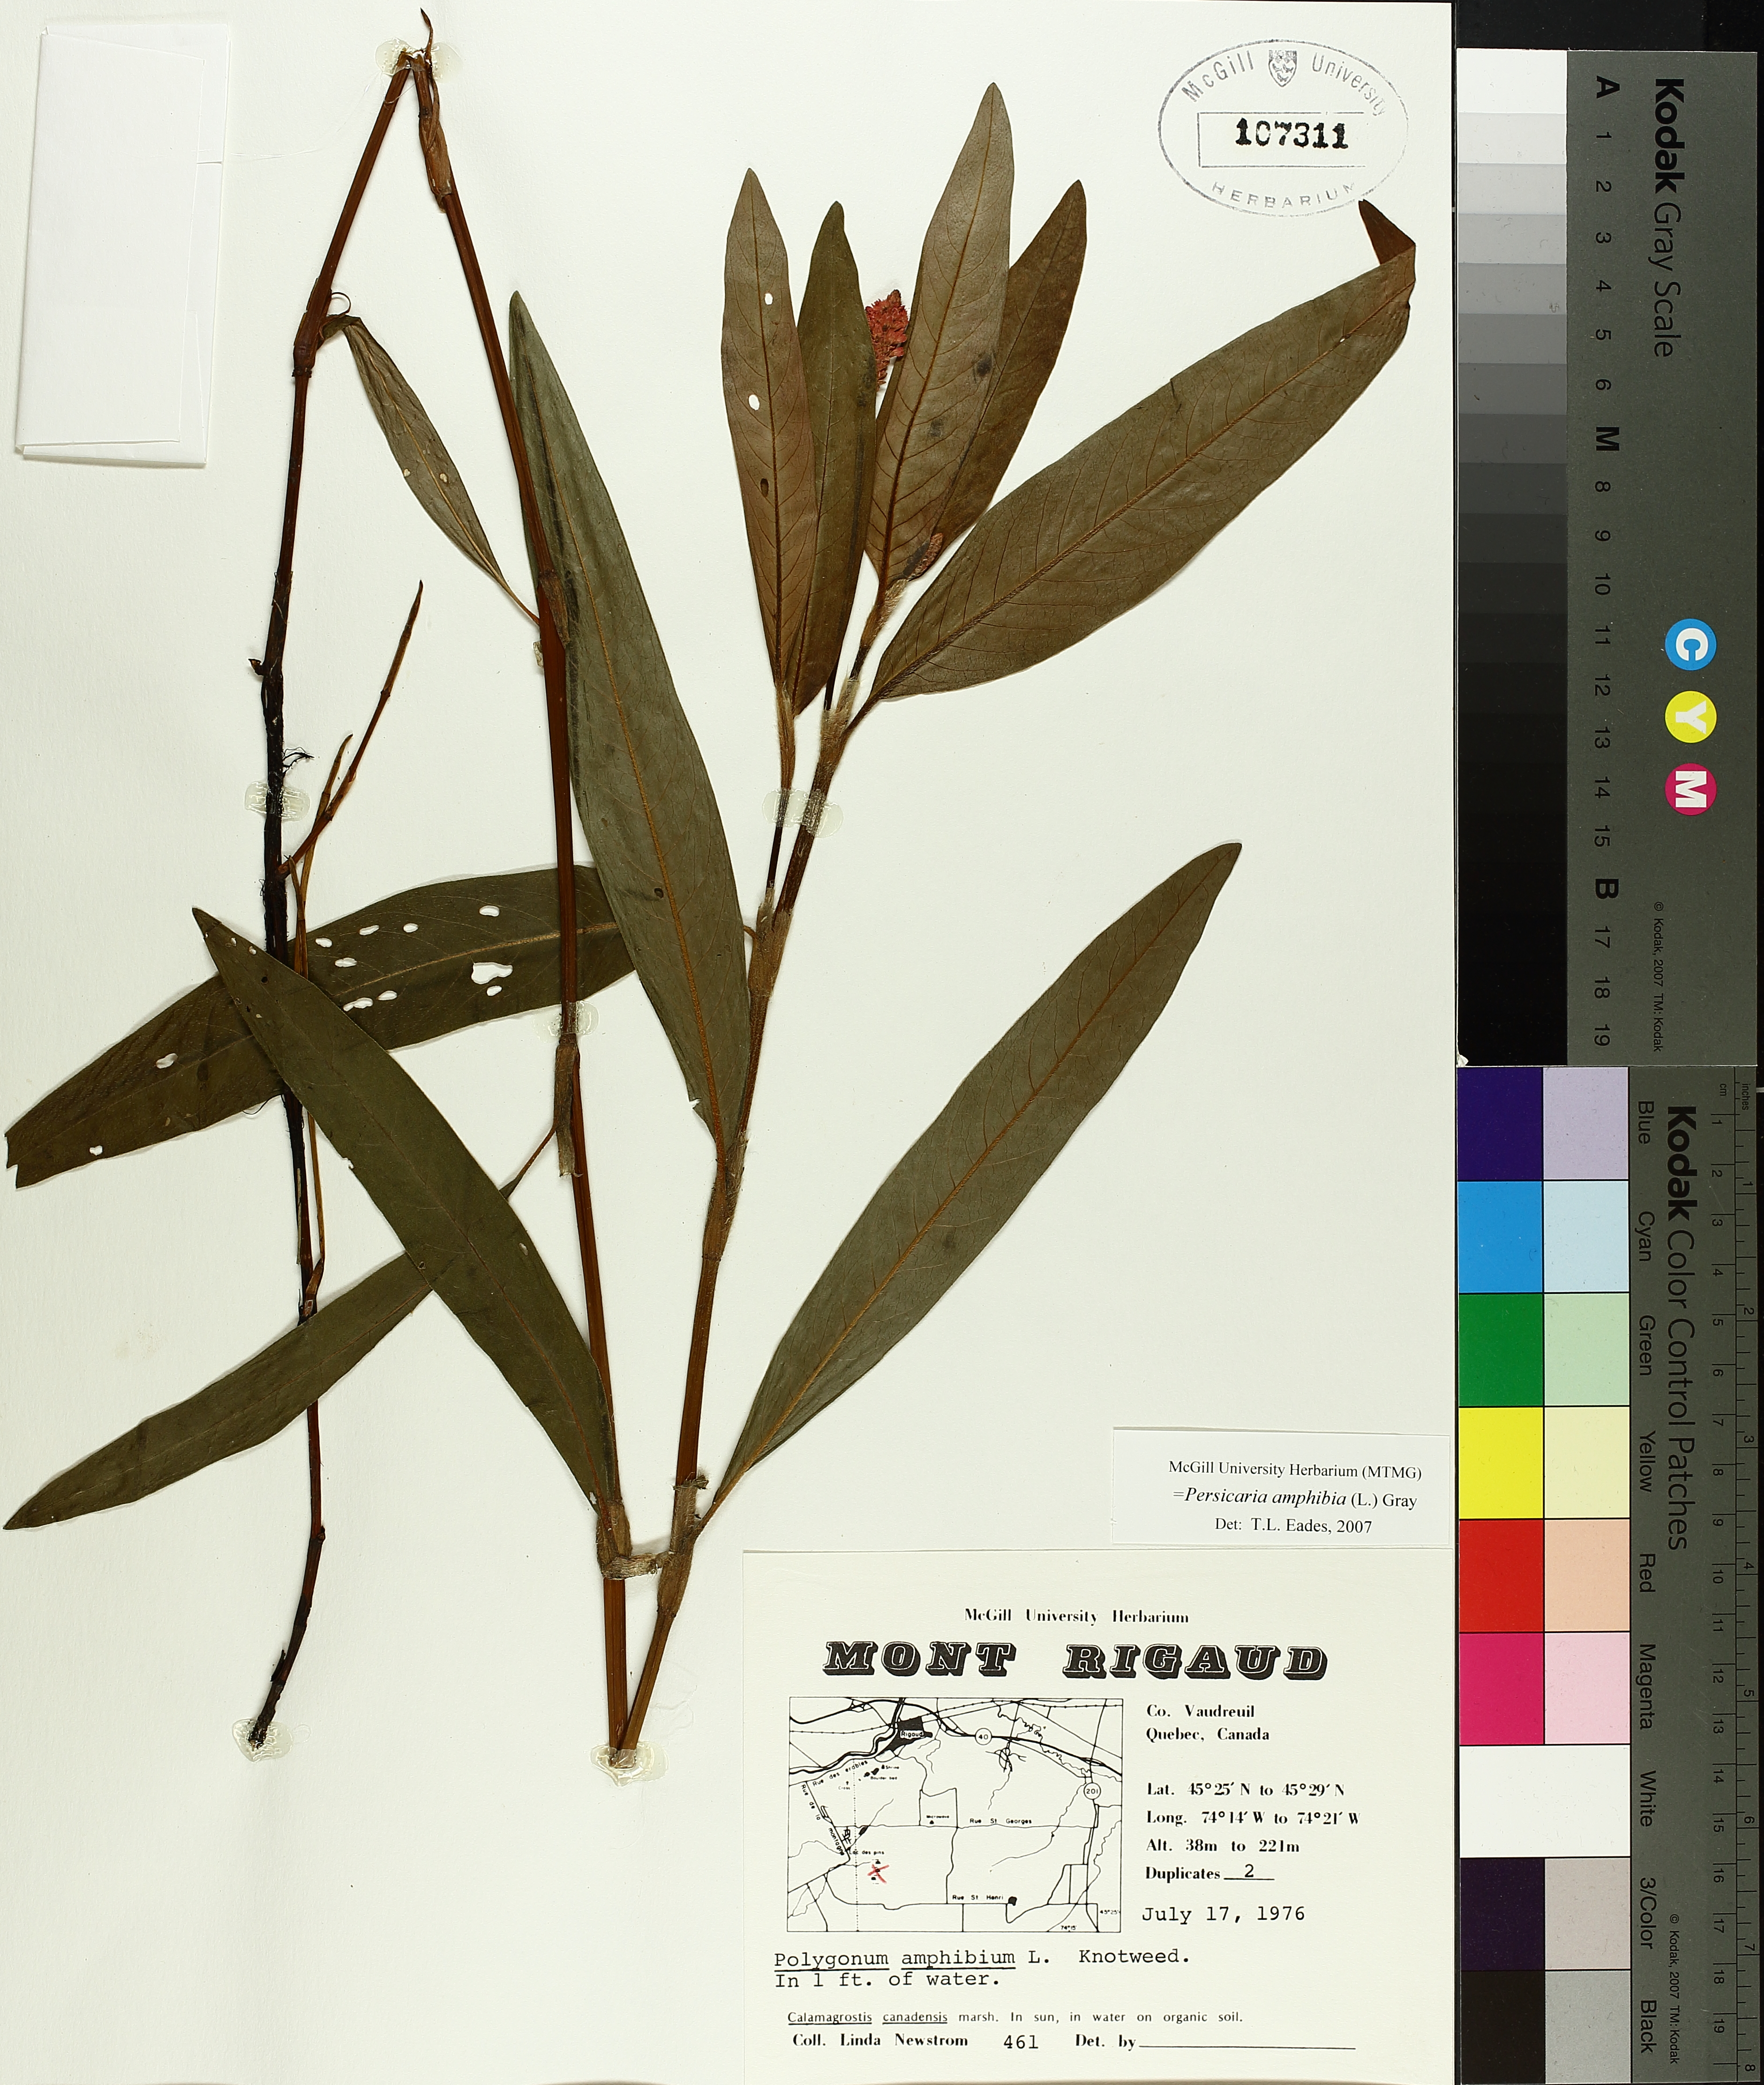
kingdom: Plantae
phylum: Tracheophyta
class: Magnoliopsida
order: Caryophyllales
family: Polygonaceae
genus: Parogonum
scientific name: Parogonum ciliinode
